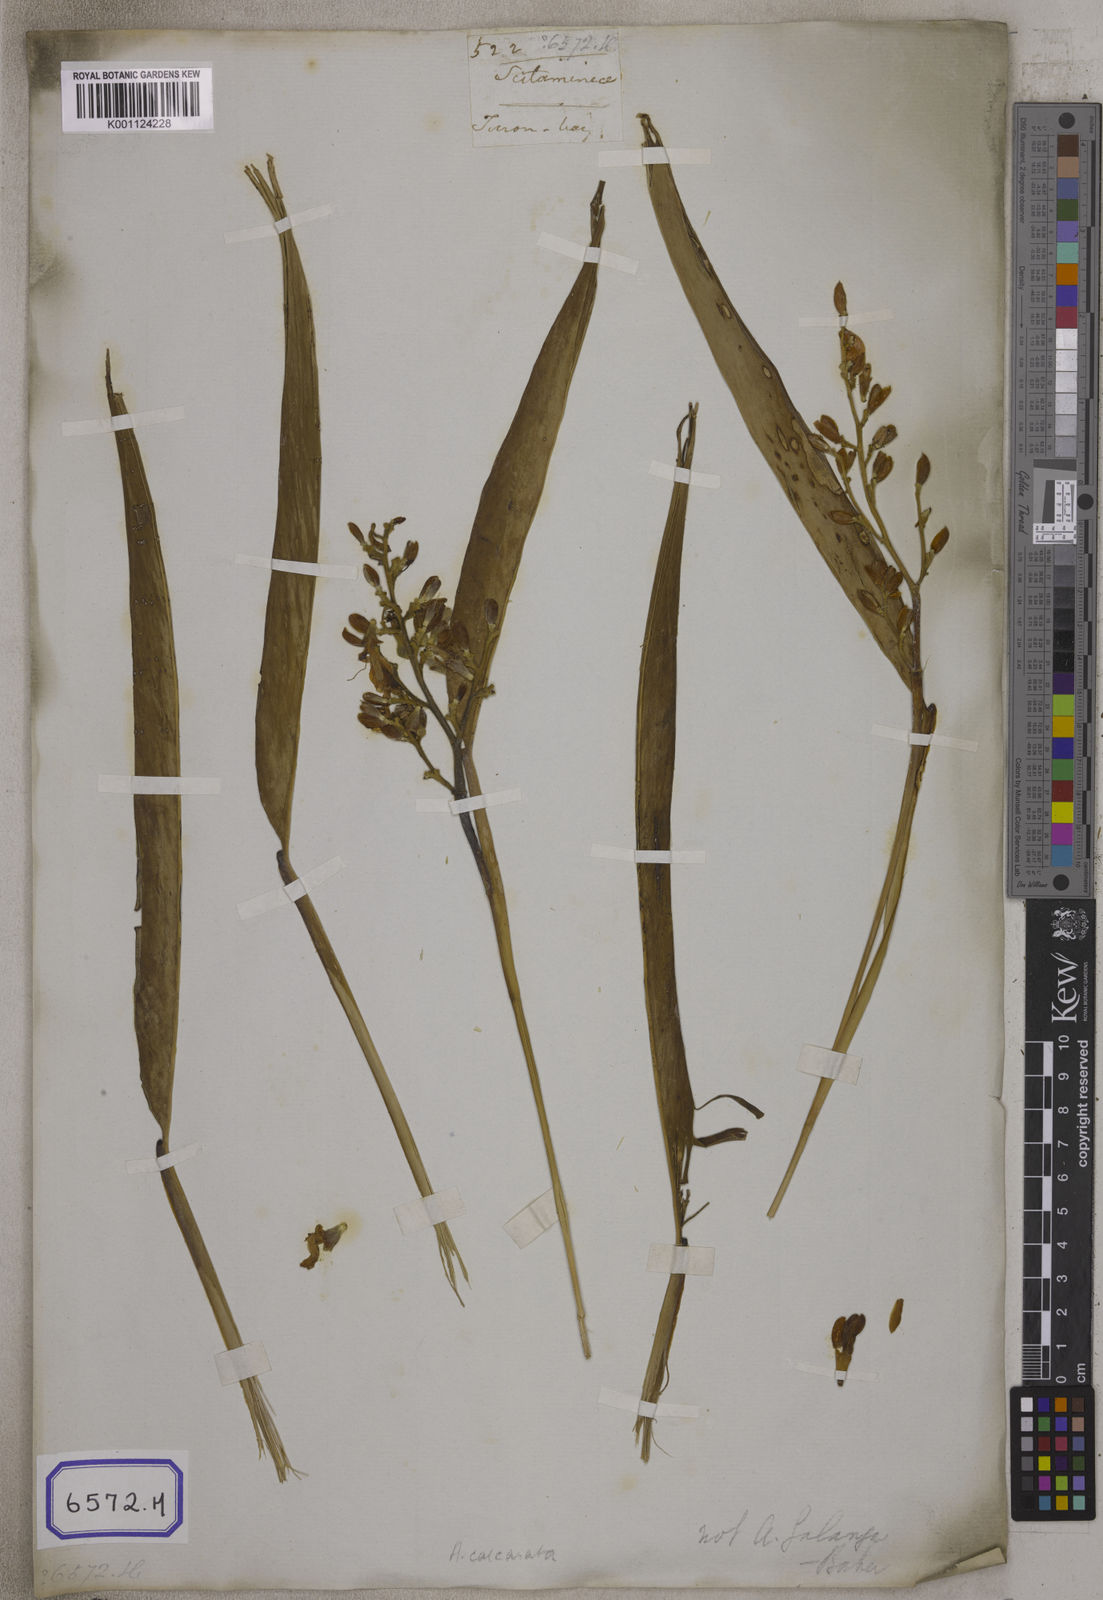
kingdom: Plantae
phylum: Tracheophyta
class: Liliopsida
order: Zingiberales
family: Zingiberaceae
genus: Alpinia
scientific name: Alpinia galanga
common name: Siamese-ginger
